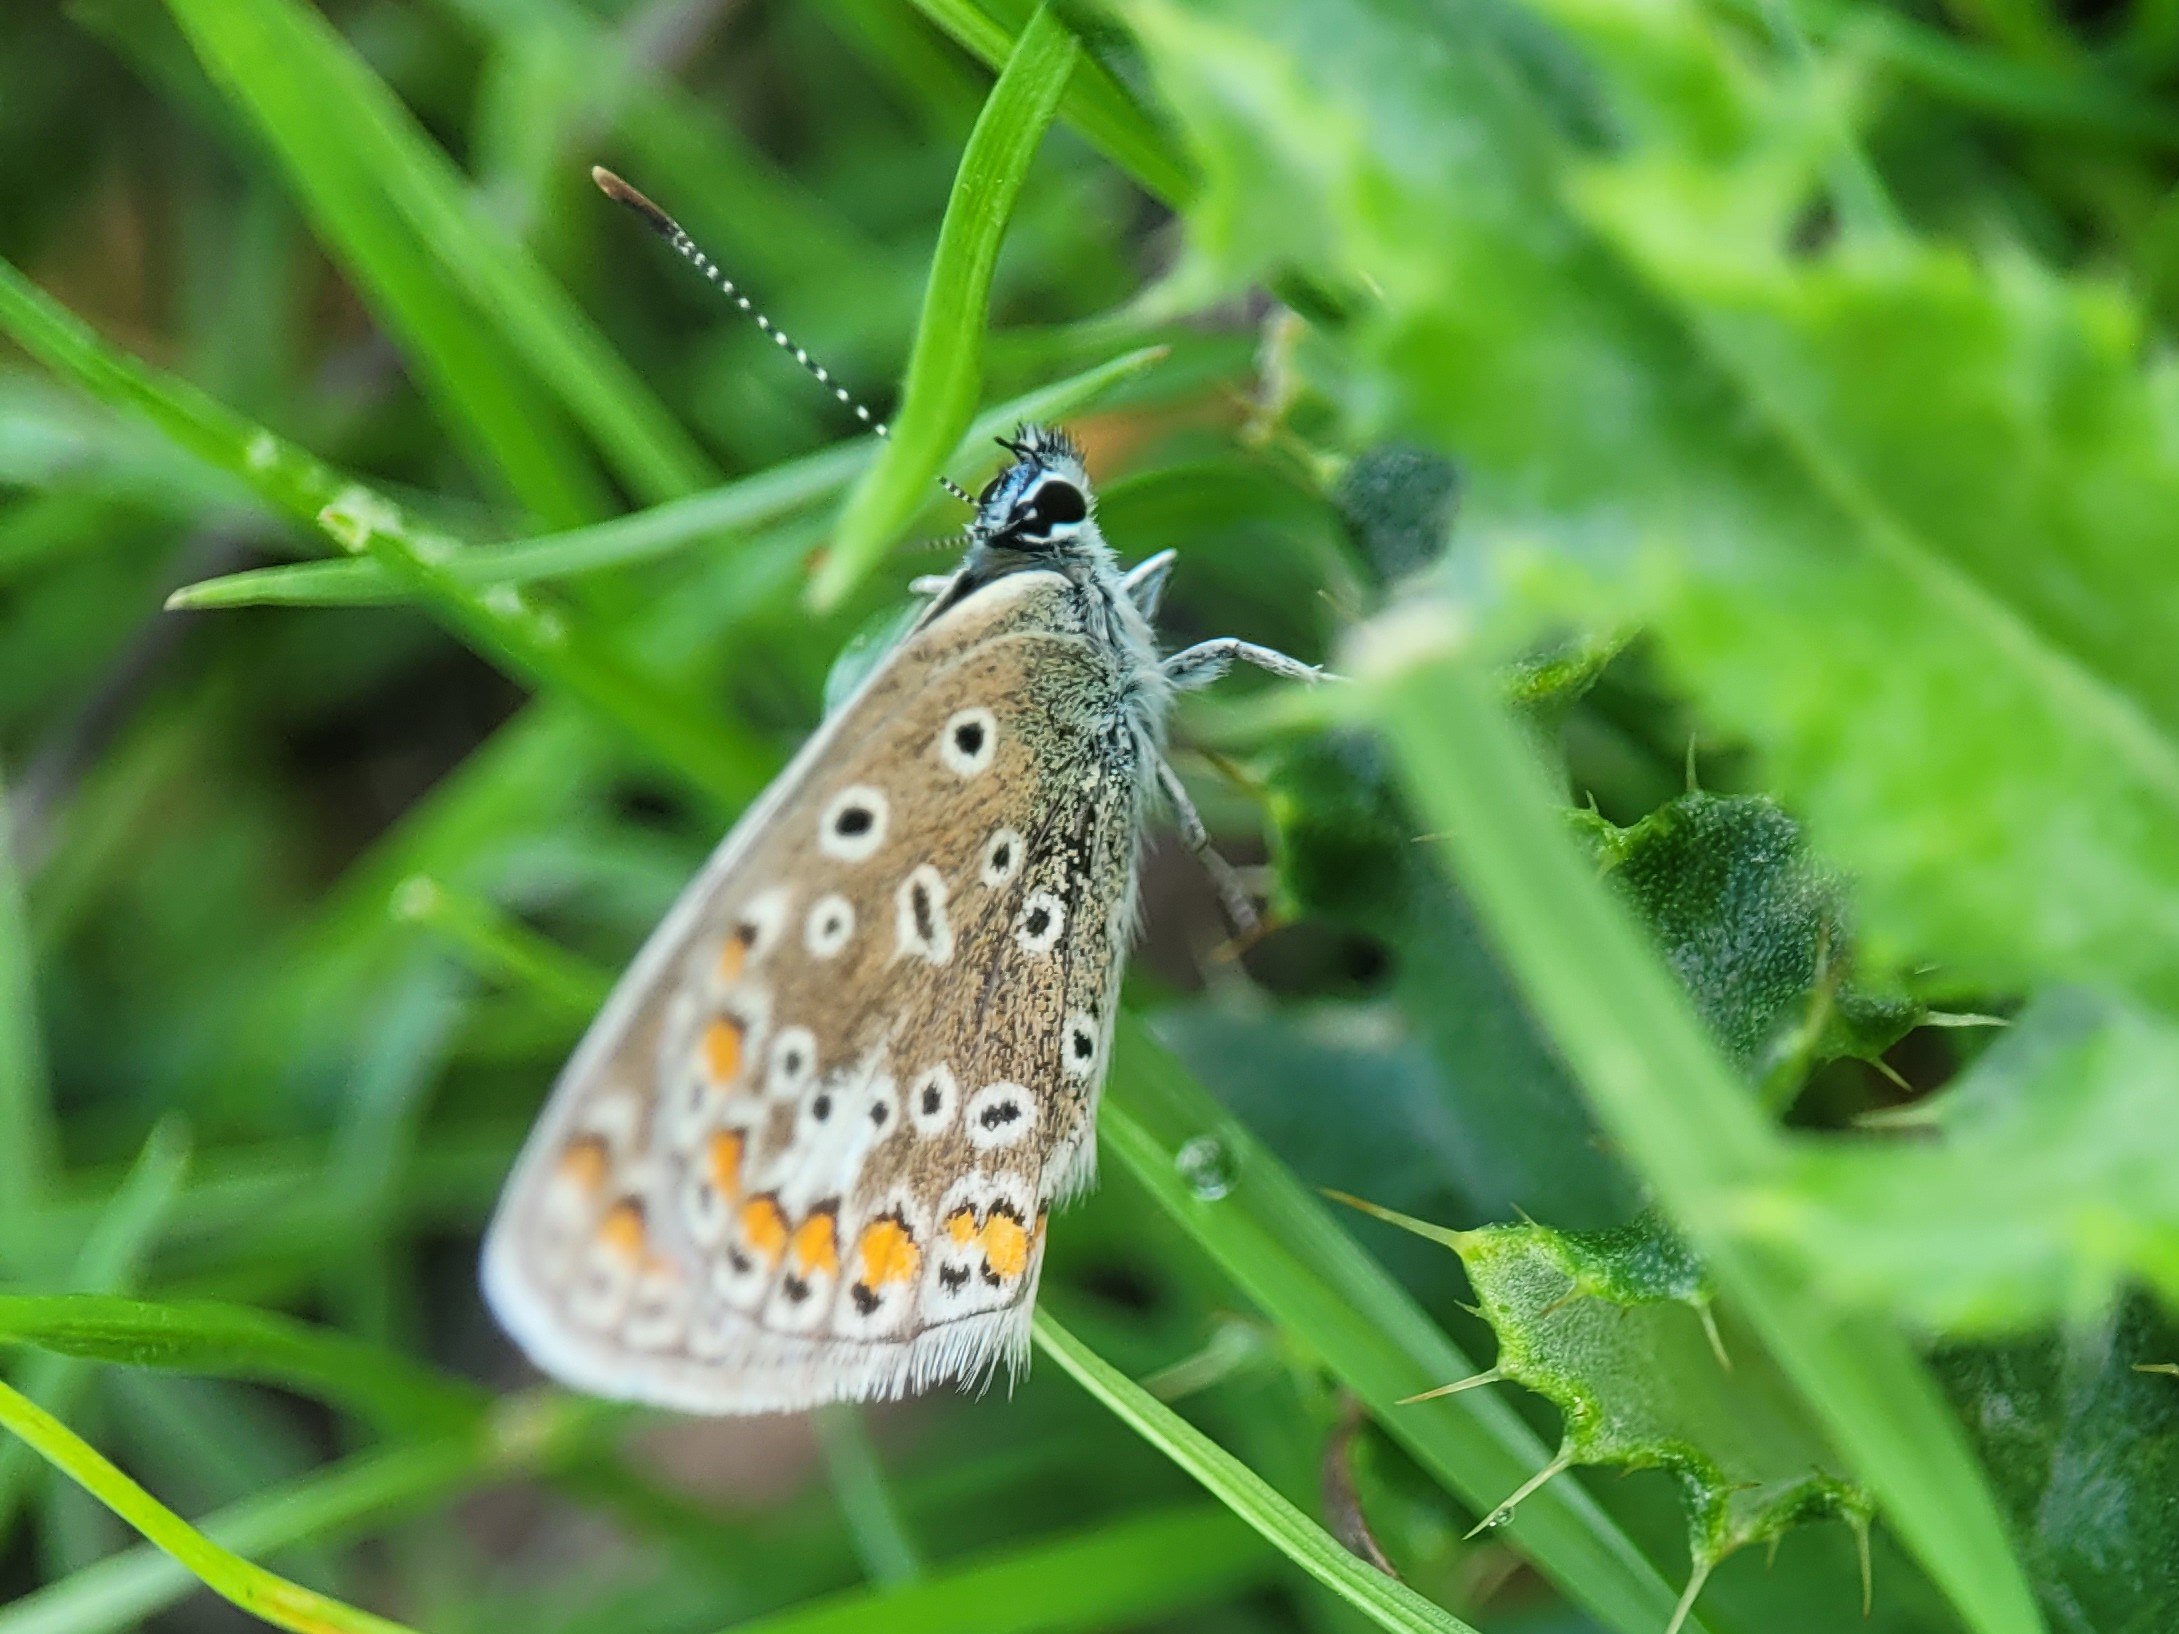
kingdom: Animalia
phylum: Arthropoda
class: Insecta
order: Lepidoptera
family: Lycaenidae
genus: Polyommatus
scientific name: Polyommatus icarus
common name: Almindelig blåfugl
